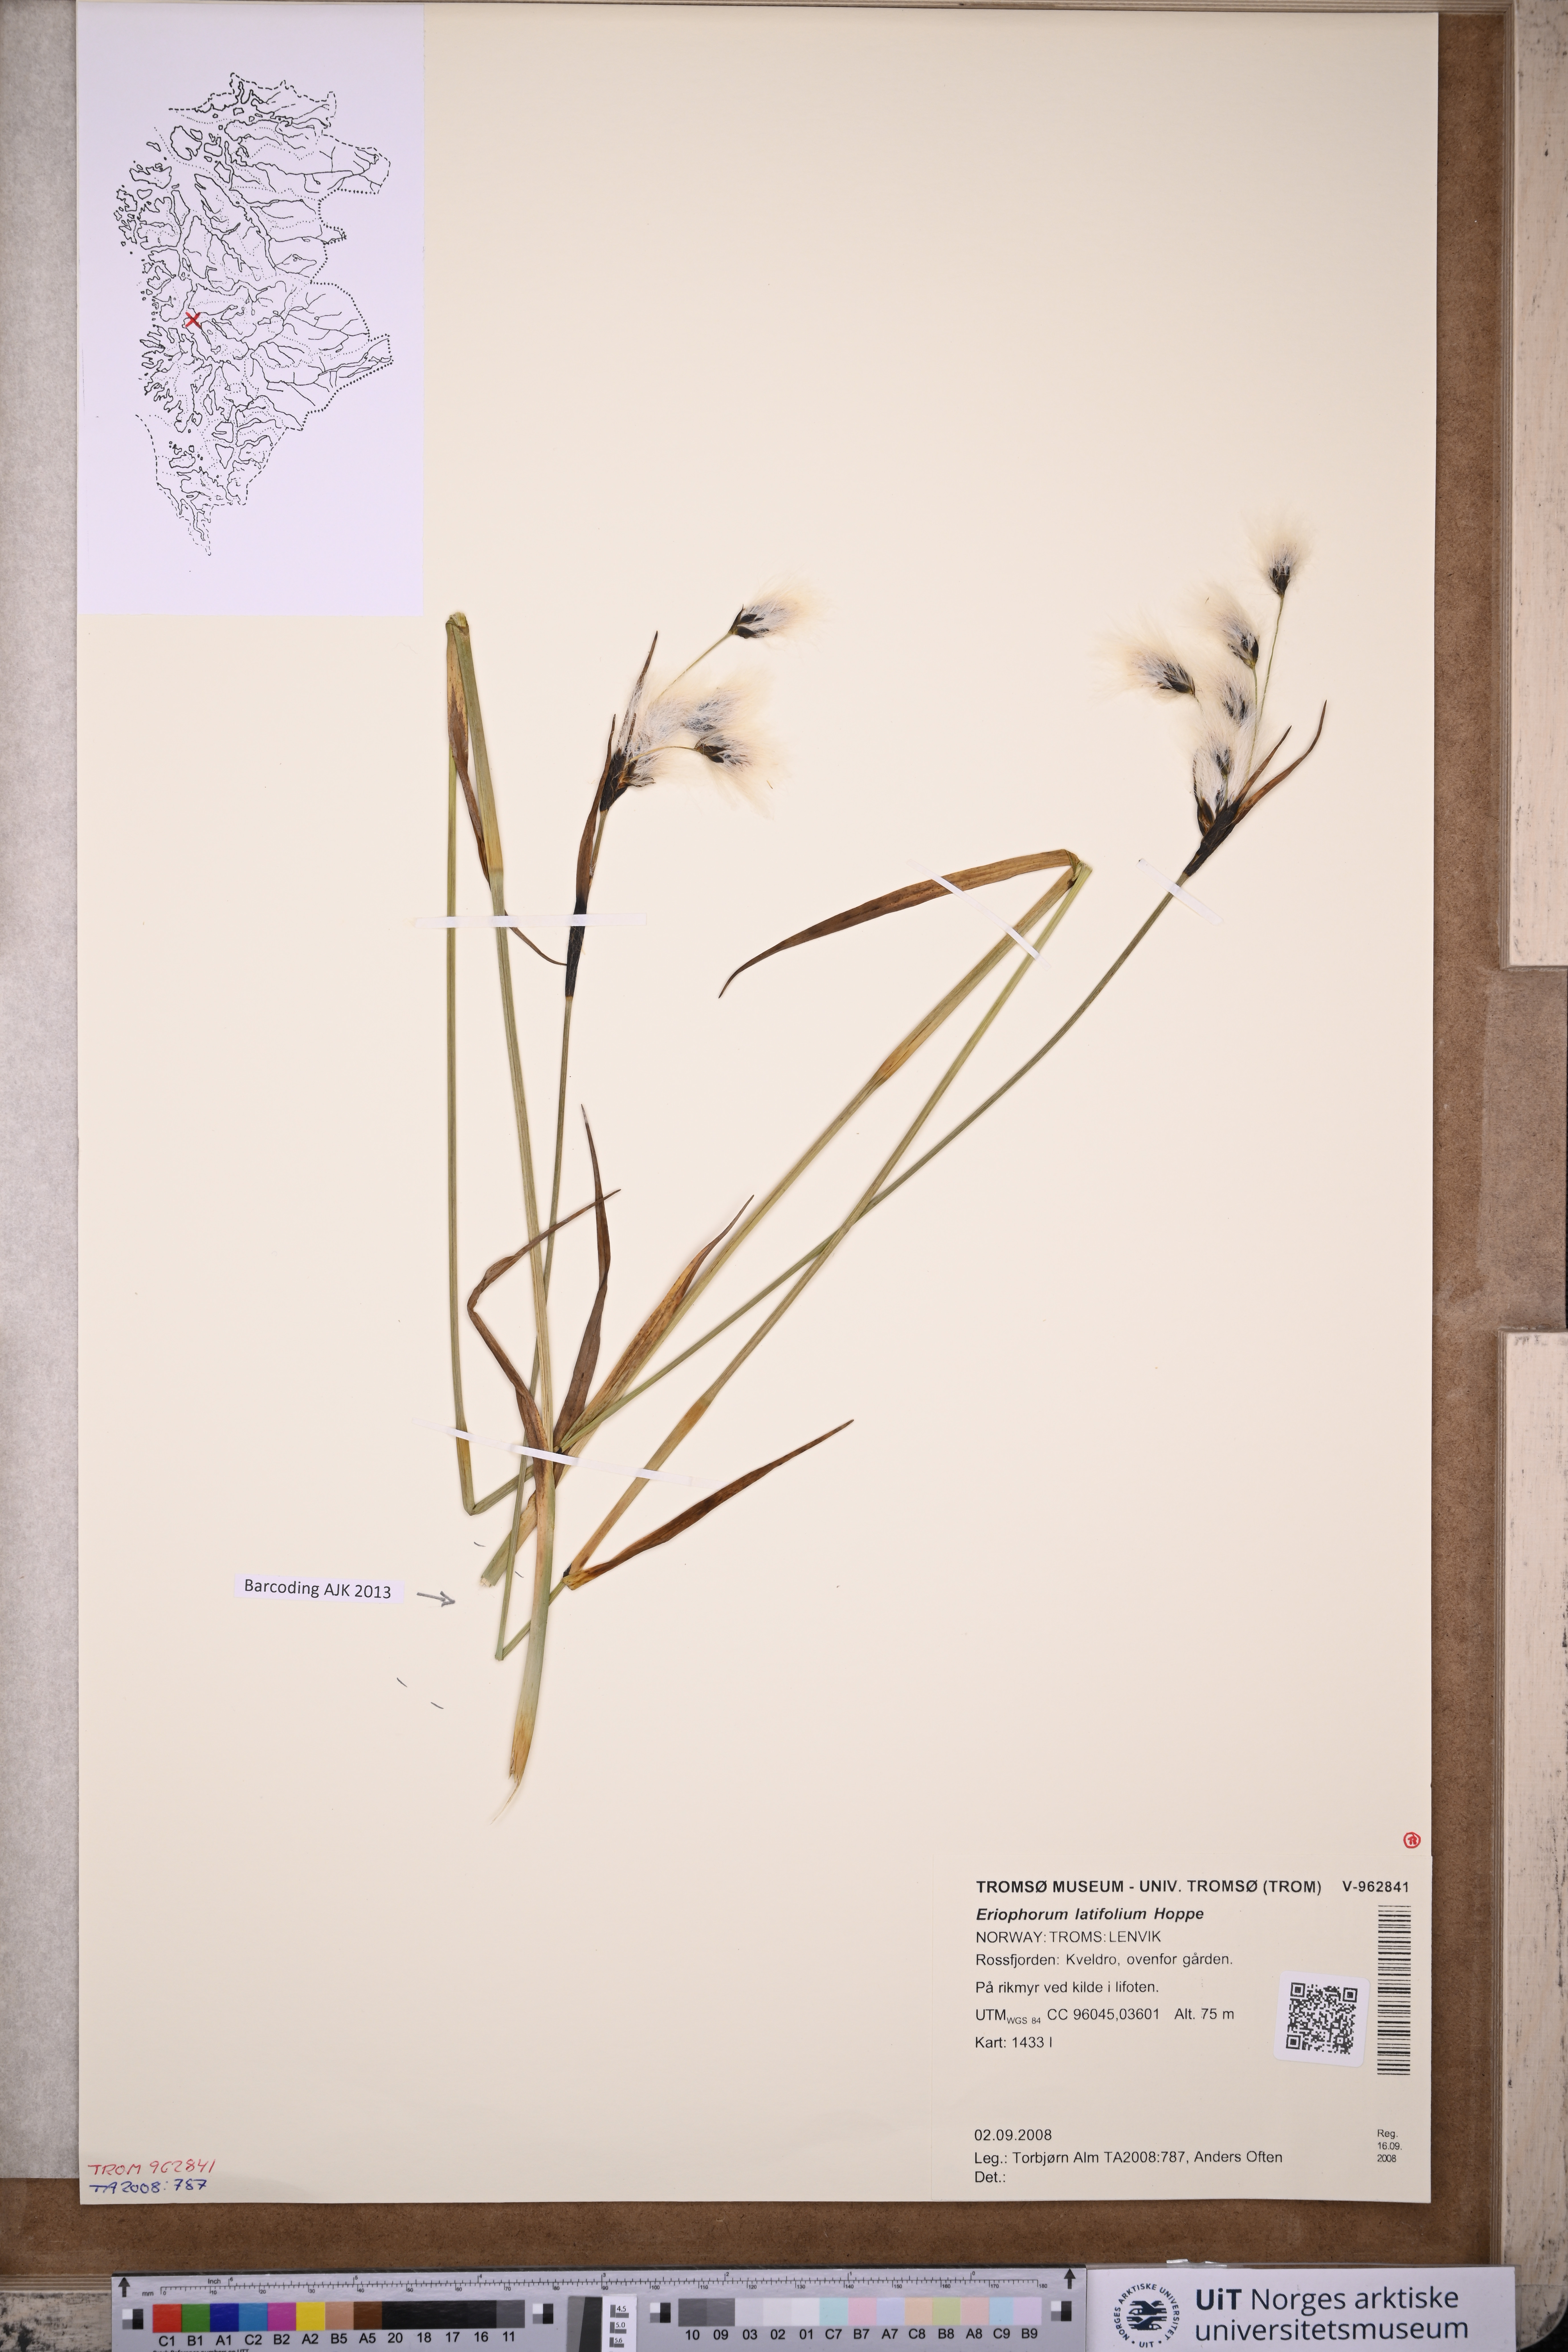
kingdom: Plantae
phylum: Tracheophyta
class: Liliopsida
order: Poales
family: Cyperaceae
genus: Eriophorum
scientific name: Eriophorum latifolium
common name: Broad-leaved cottongrass
